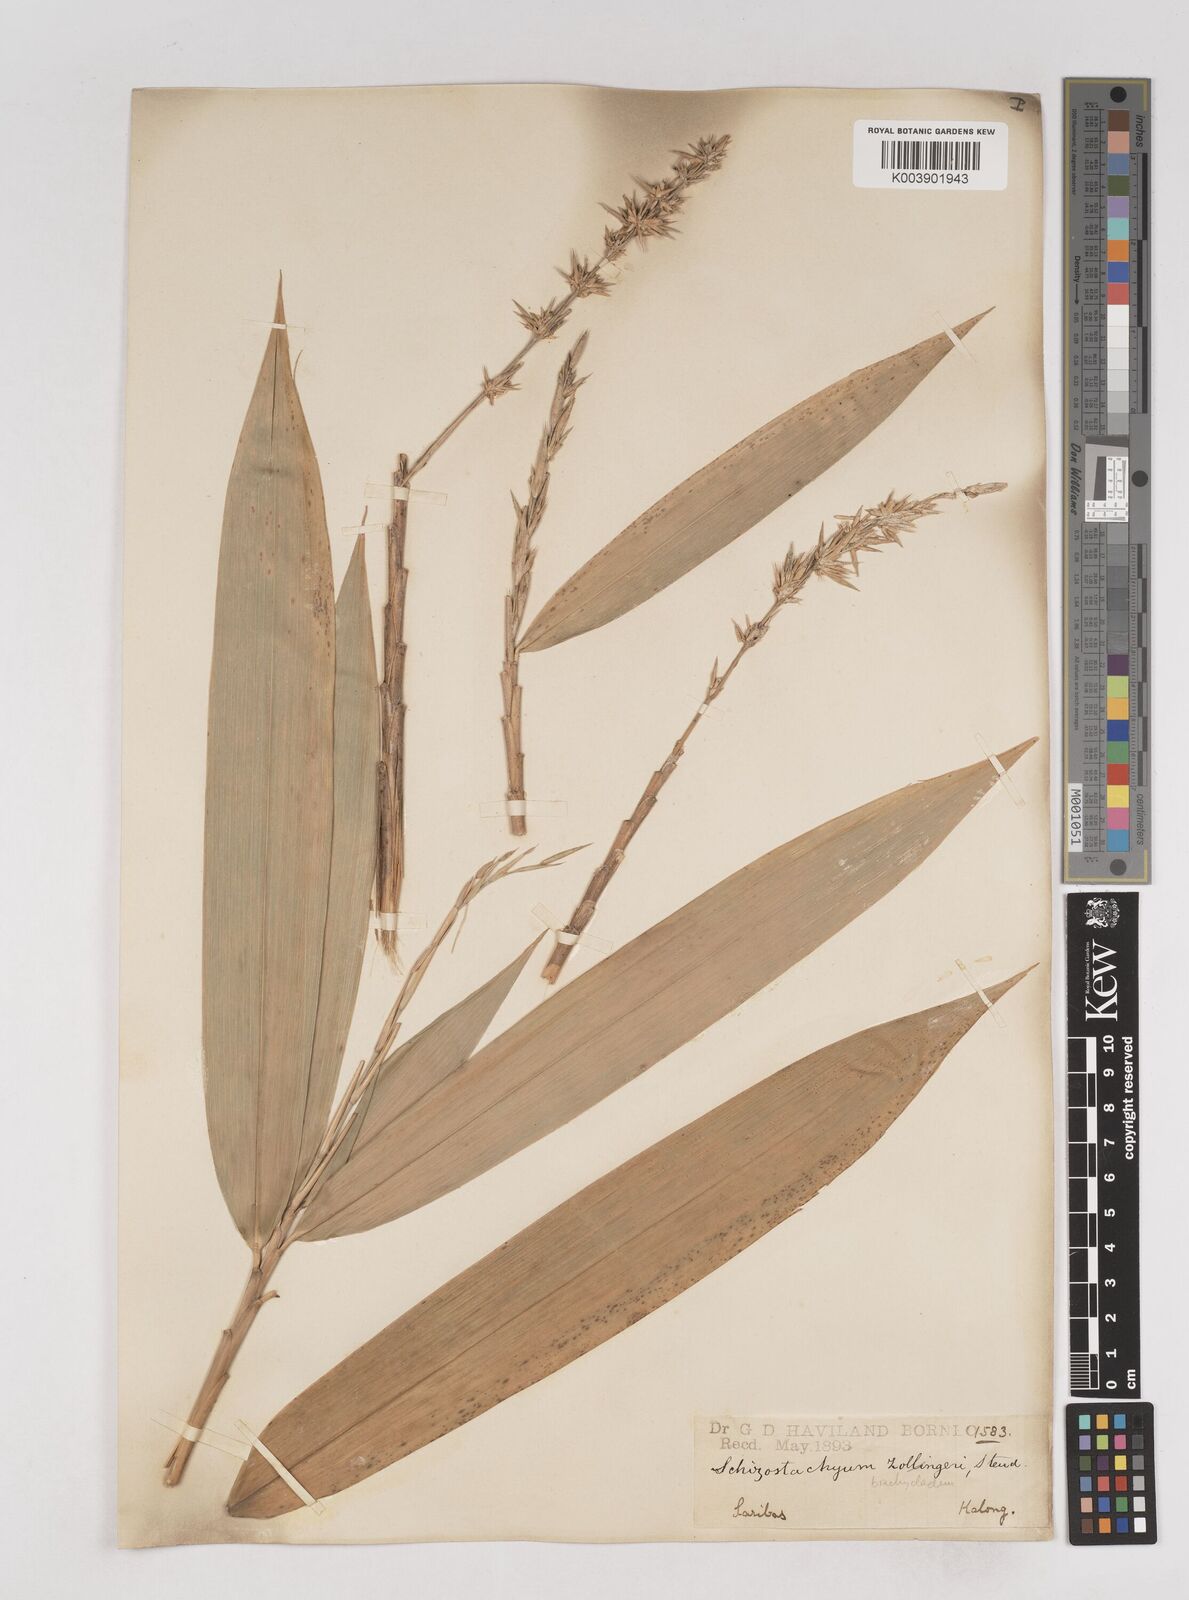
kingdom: Plantae
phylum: Tracheophyta
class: Liliopsida
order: Poales
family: Poaceae
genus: Schizostachyum
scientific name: Schizostachyum brachycladum
